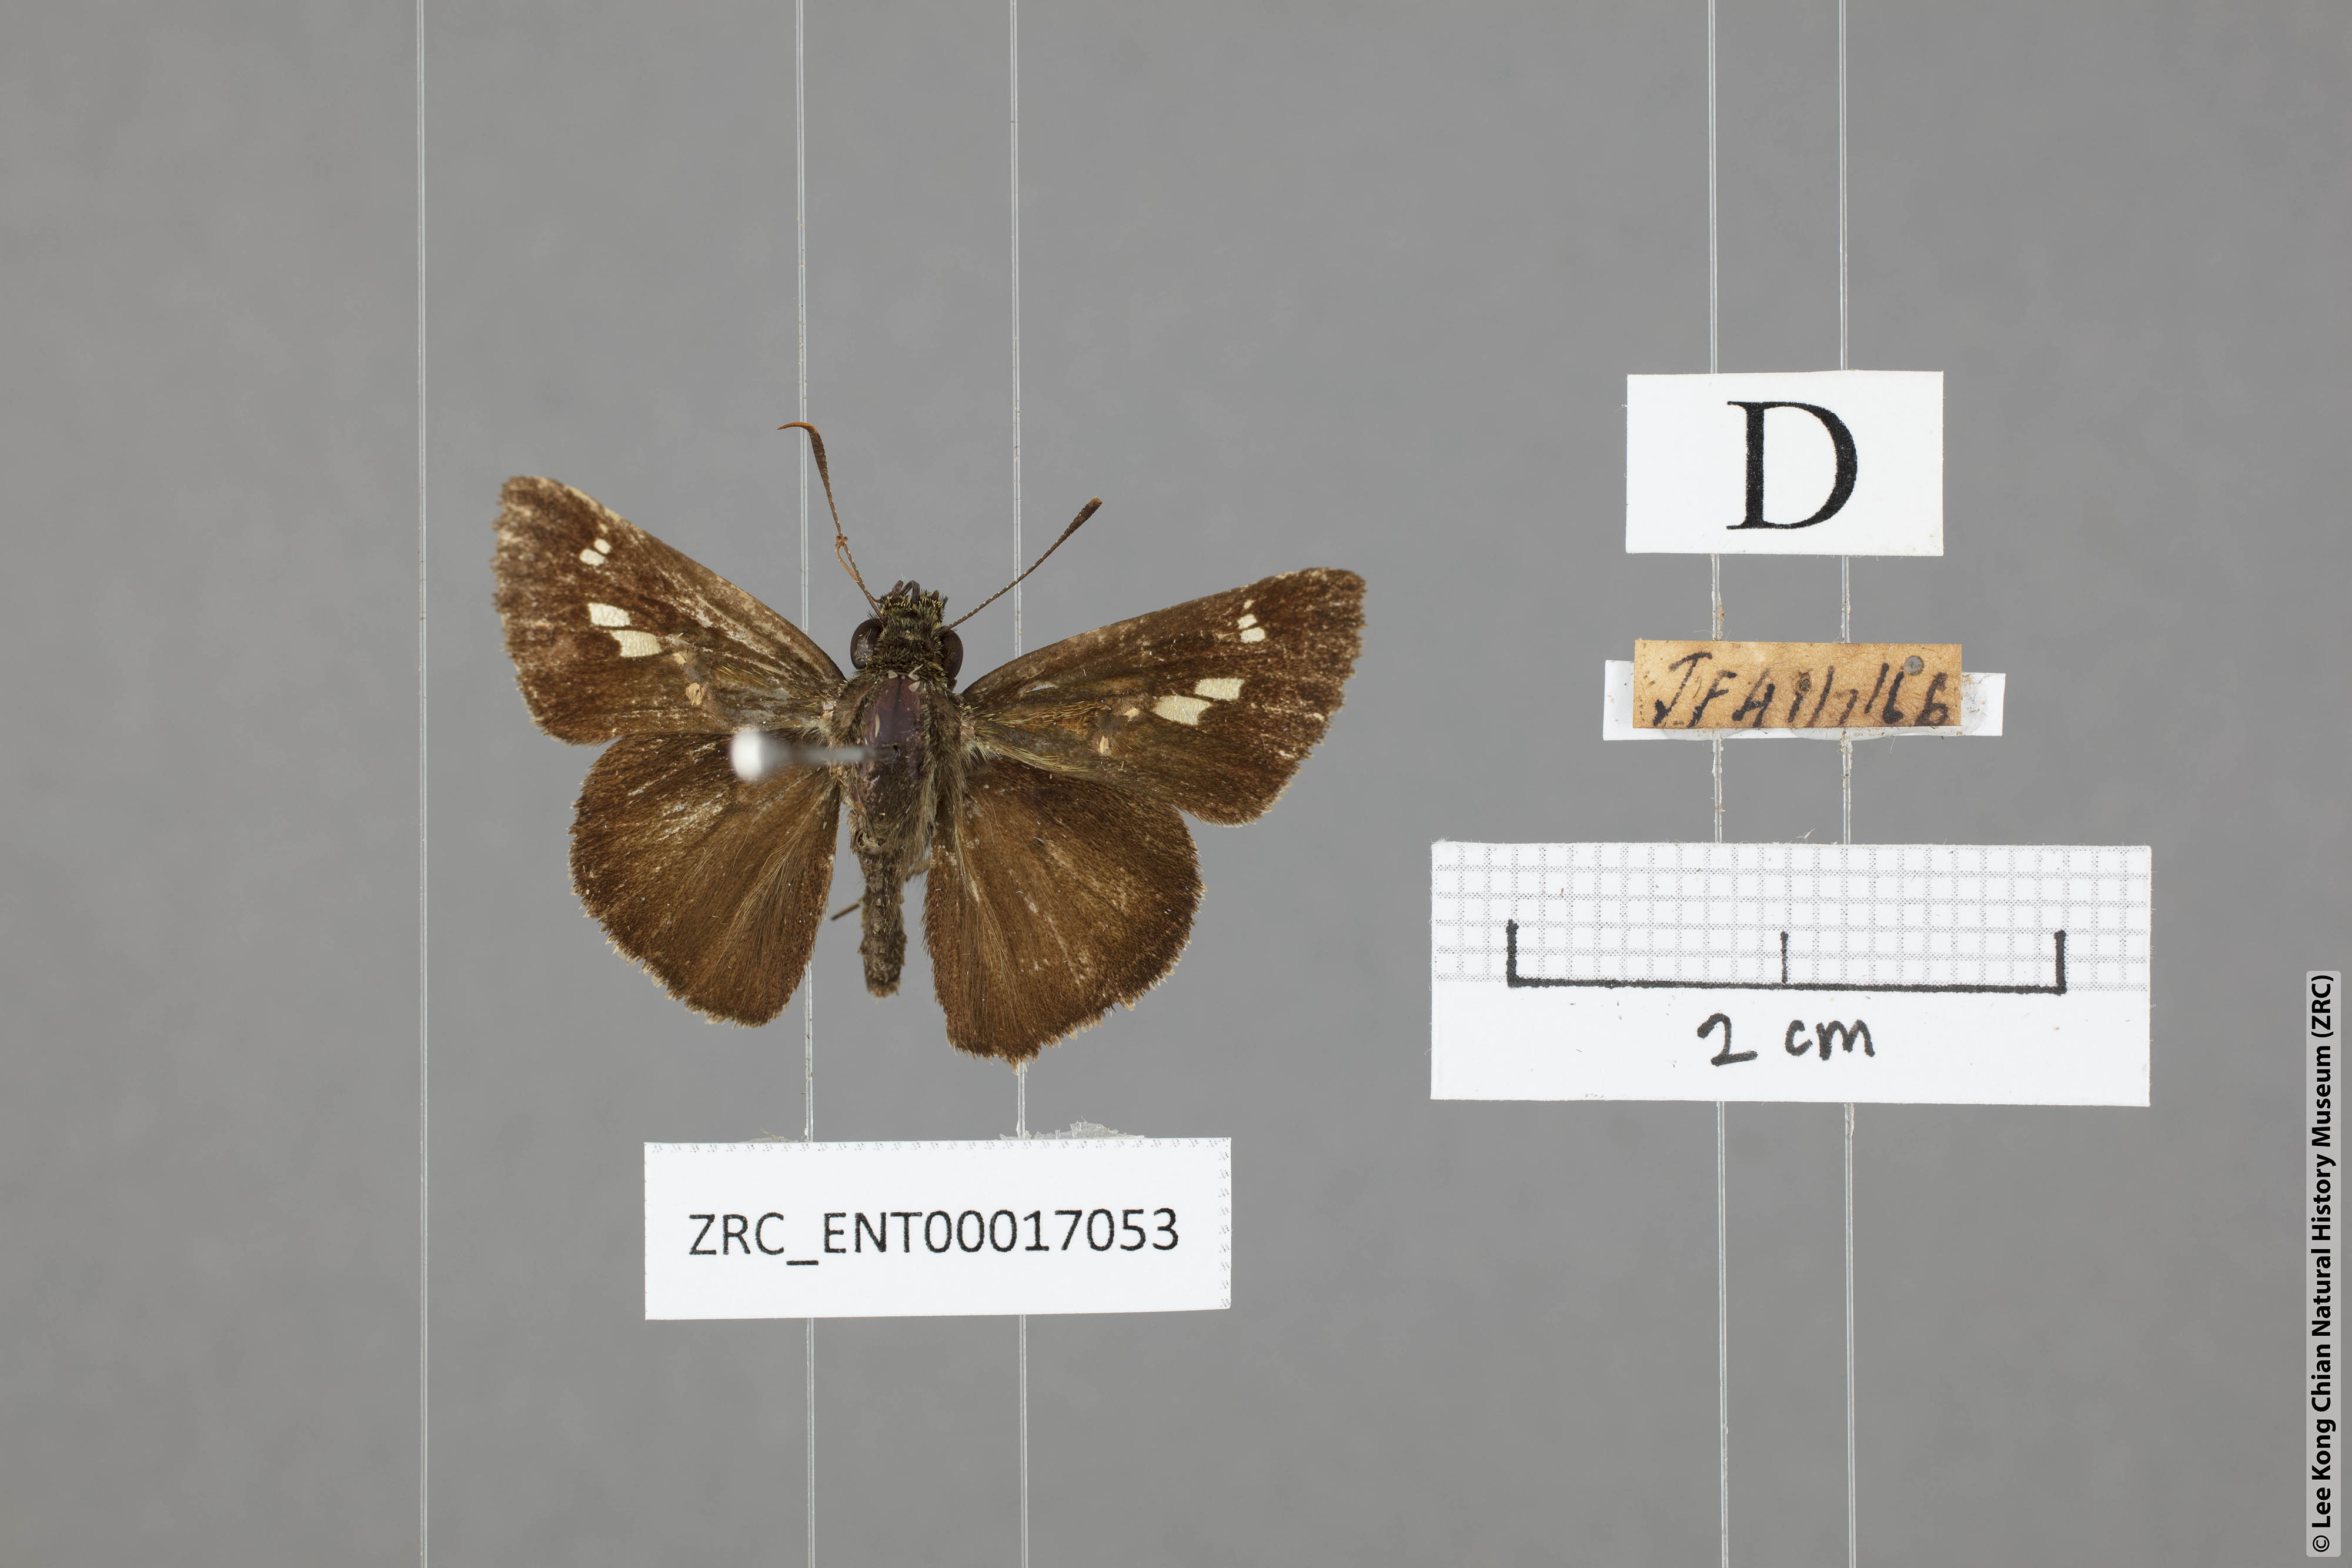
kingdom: Animalia
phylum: Arthropoda
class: Insecta
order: Lepidoptera
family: Hesperiidae
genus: Halpe
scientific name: Halpe sikkima
